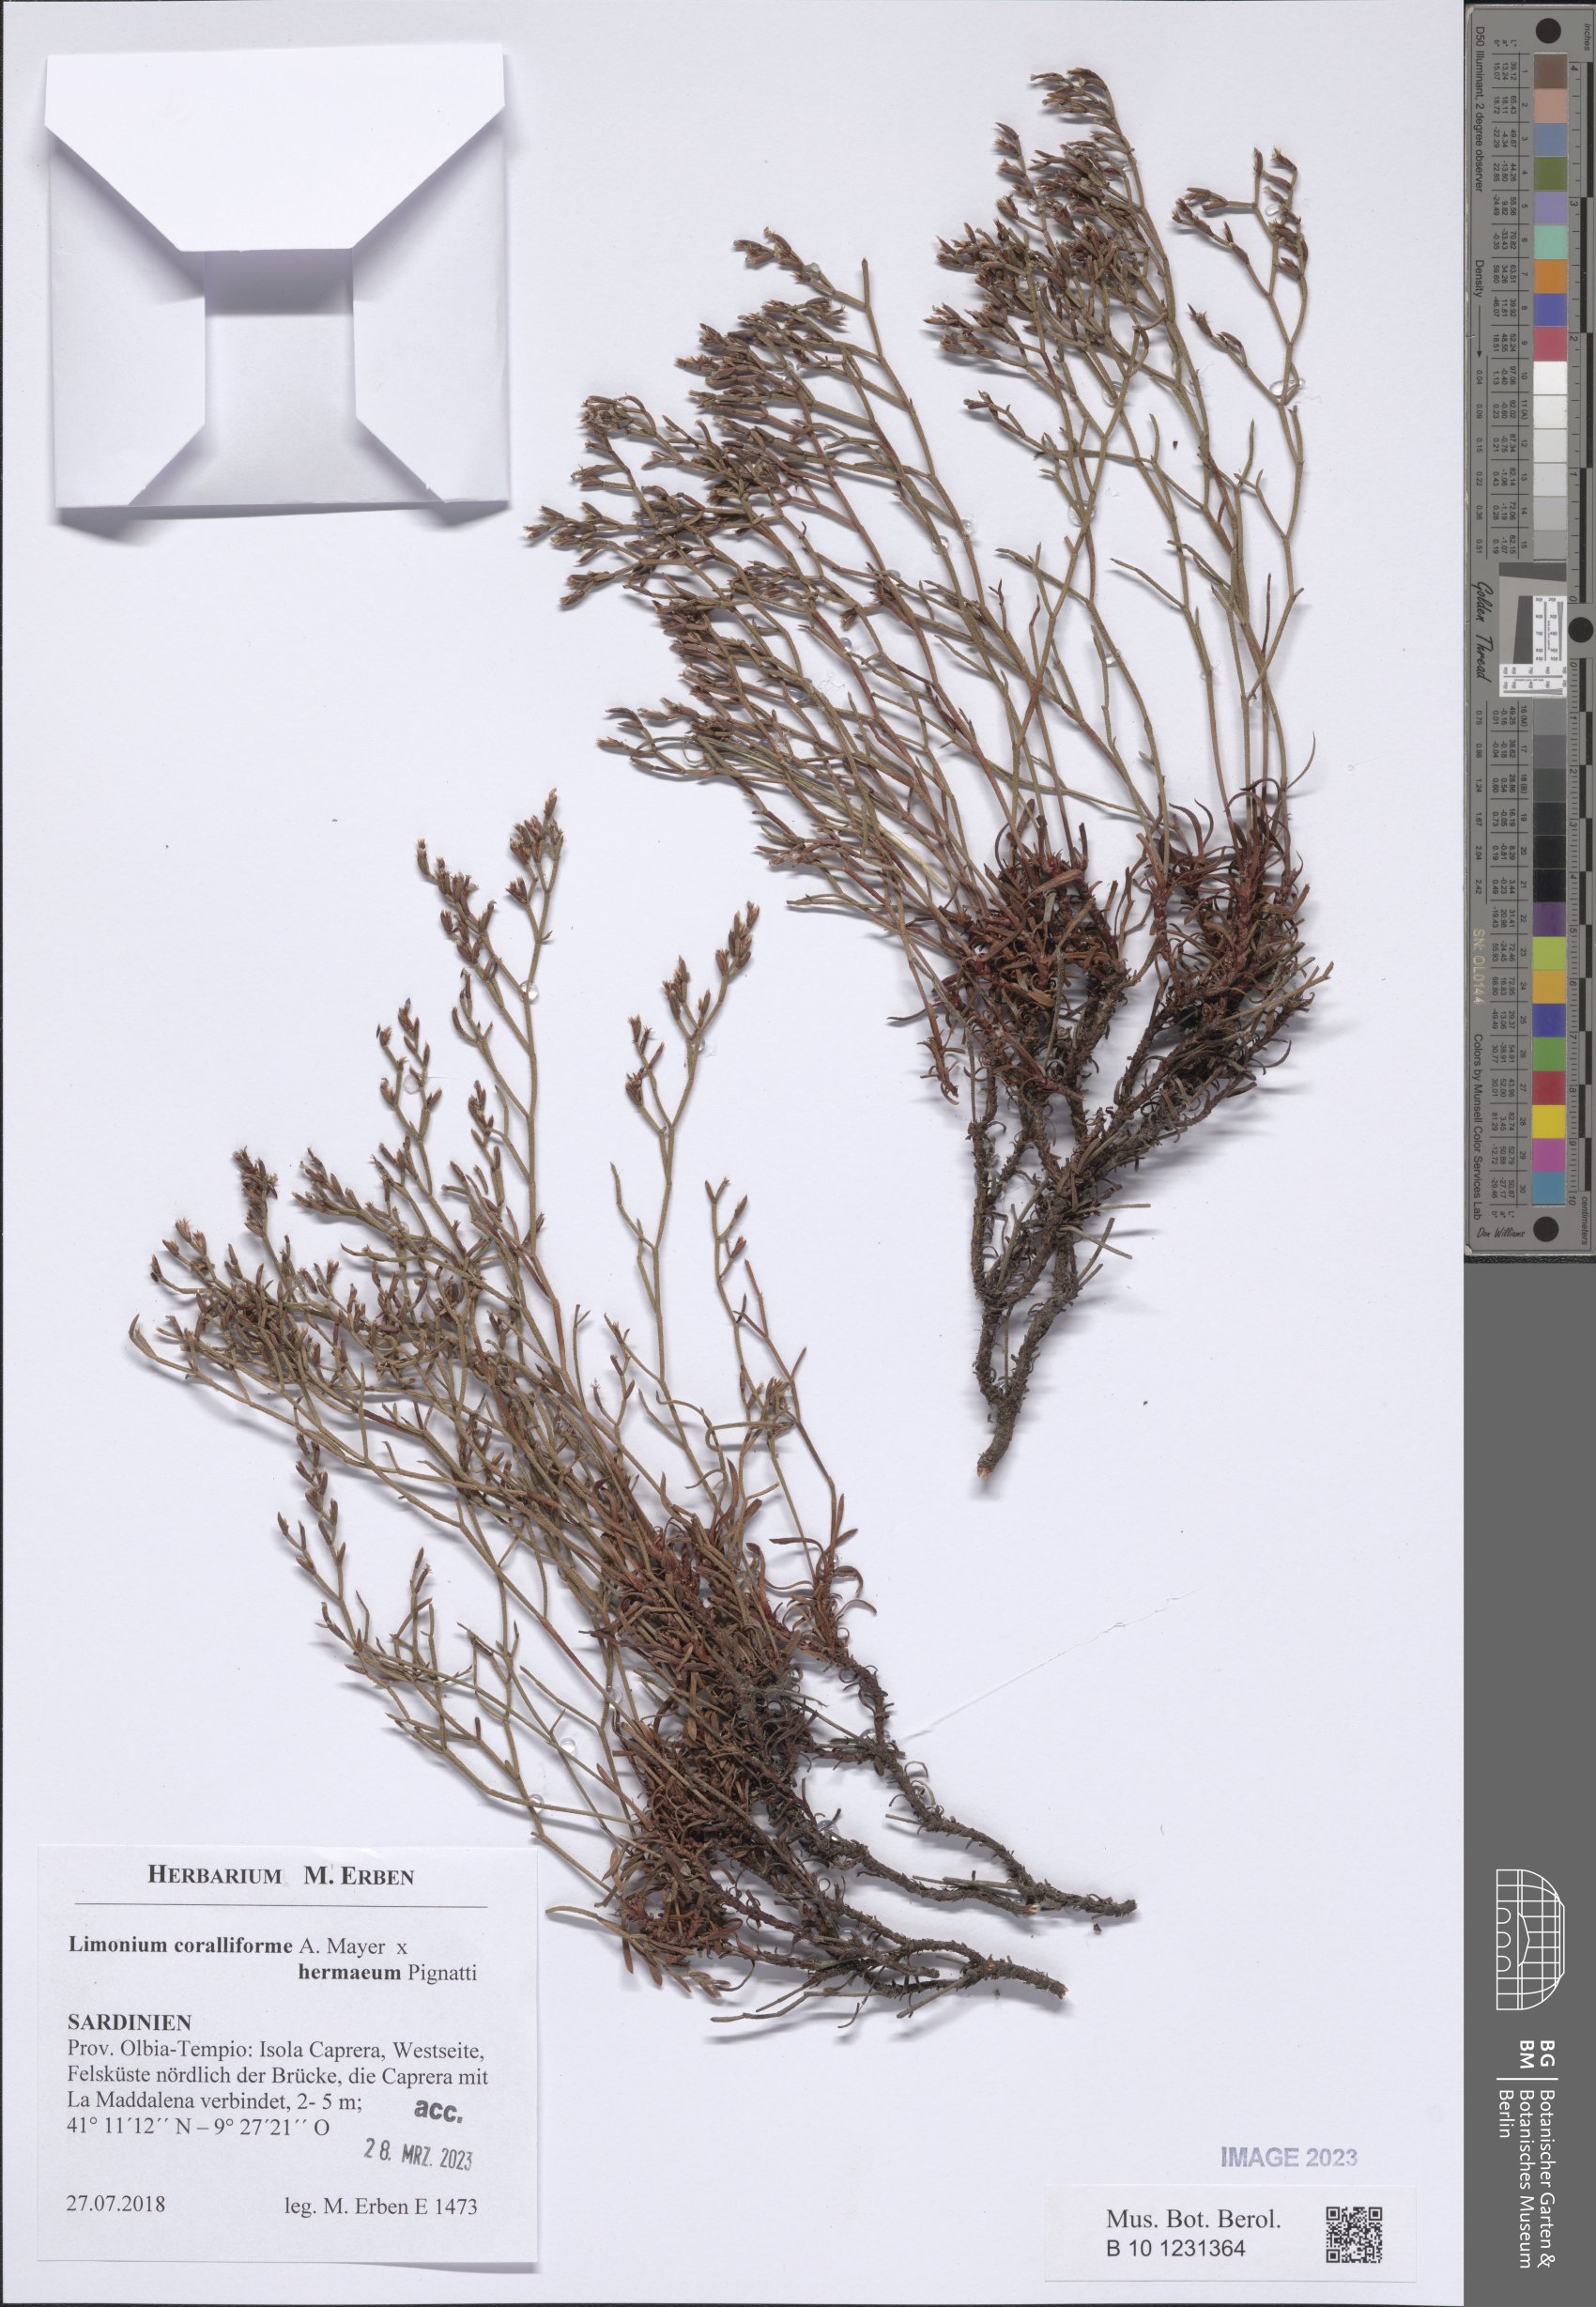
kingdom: Plantae
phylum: Tracheophyta
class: Magnoliopsida
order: Caryophyllales
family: Plumbaginaceae
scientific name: Plumbaginaceae
